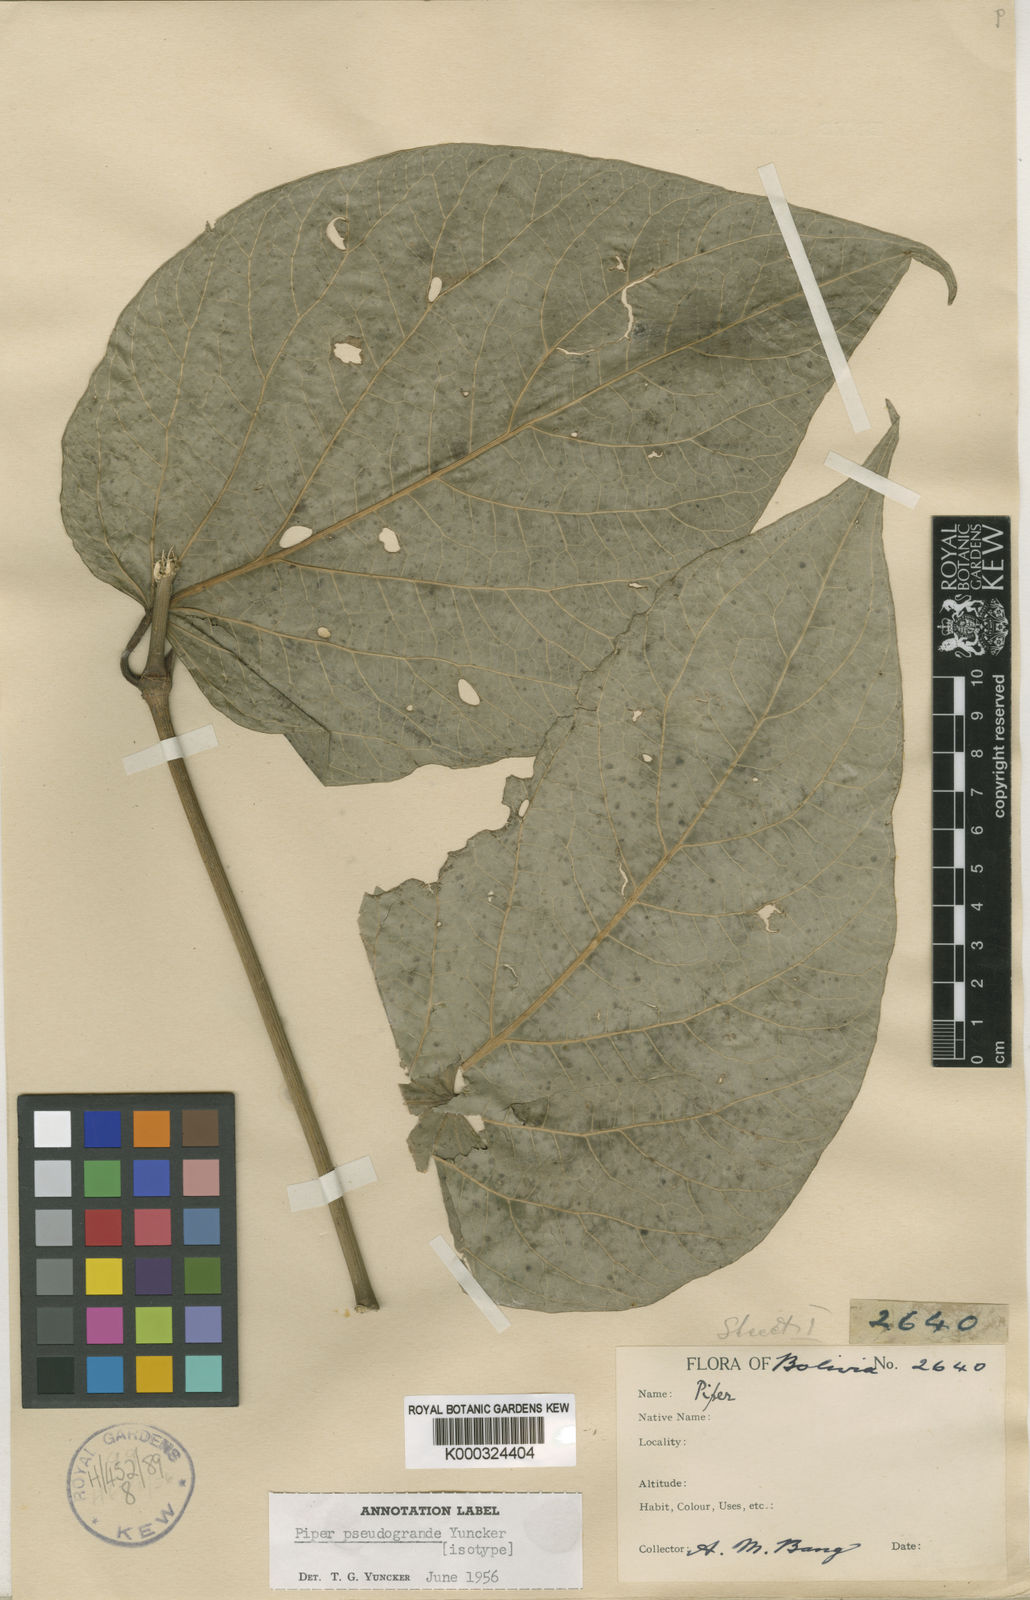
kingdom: Plantae
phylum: Tracheophyta
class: Magnoliopsida
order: Piperales
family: Piperaceae
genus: Piper
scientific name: Piper schiedeanum
